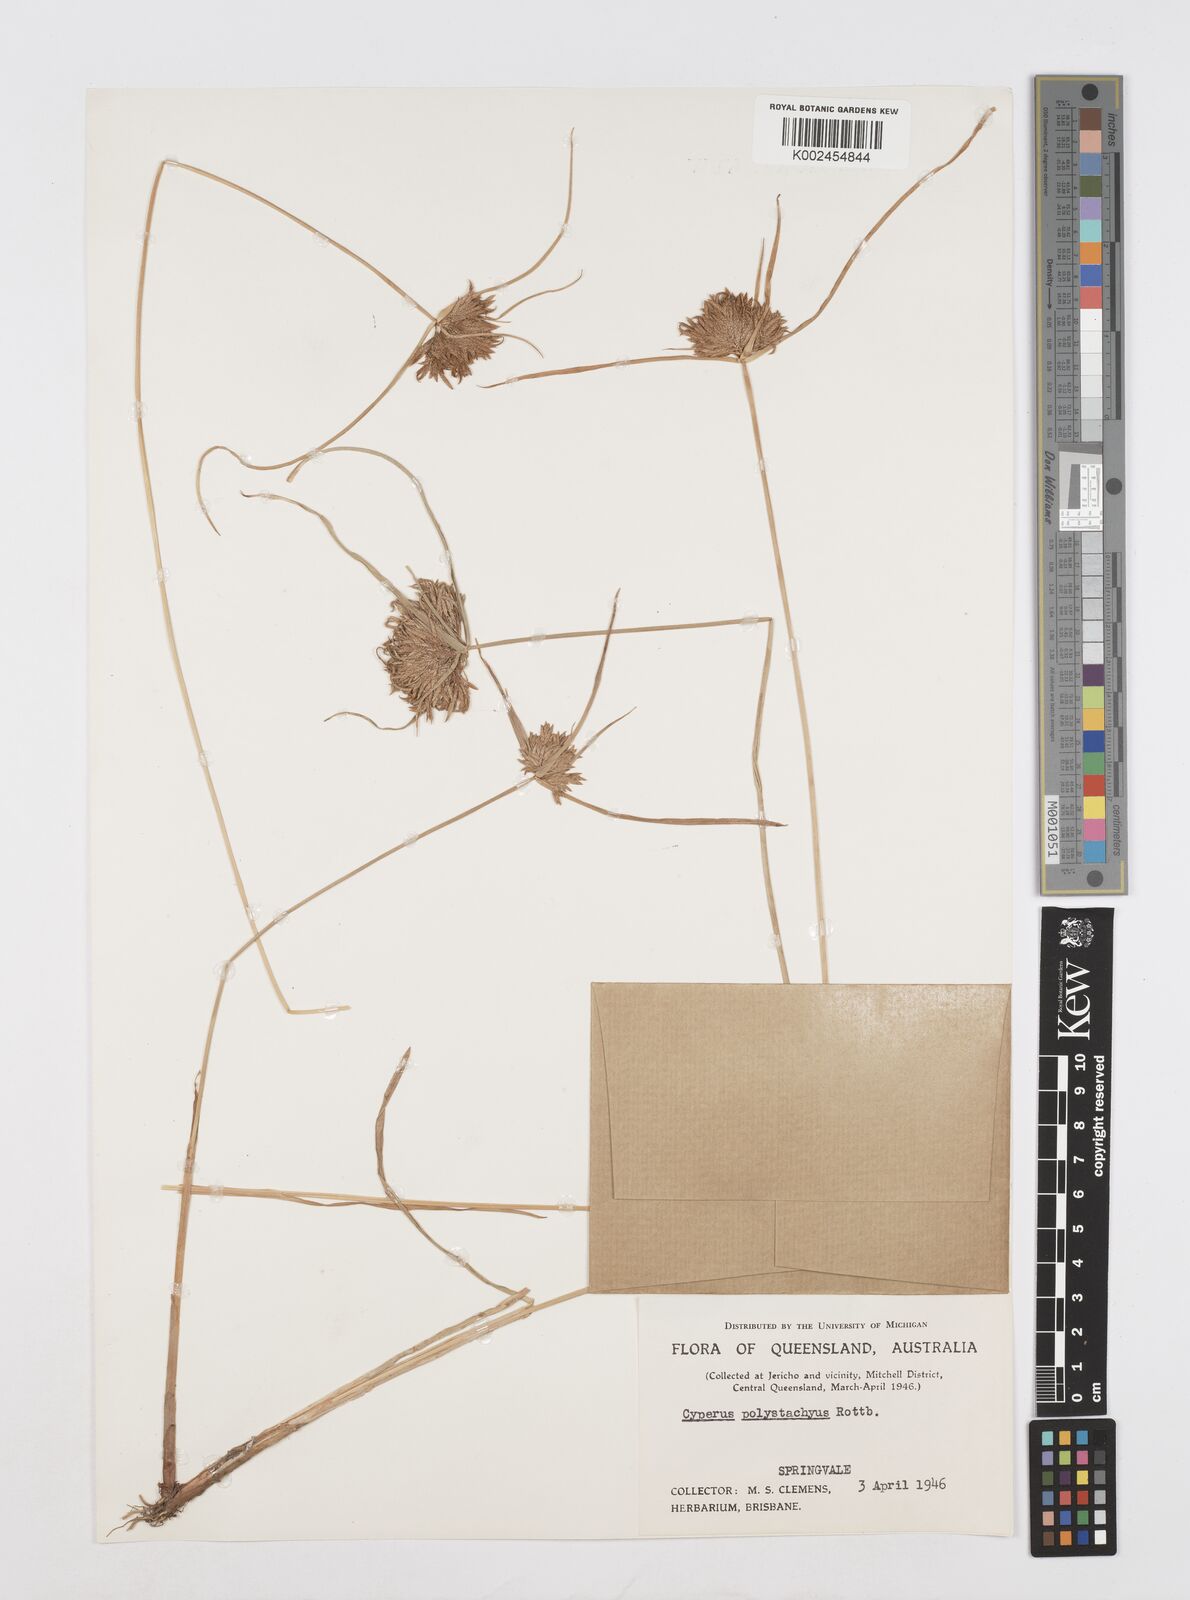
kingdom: Plantae
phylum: Tracheophyta
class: Liliopsida
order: Poales
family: Cyperaceae
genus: Cyperus
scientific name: Cyperus polystachyos
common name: Bunchy flat sedge
